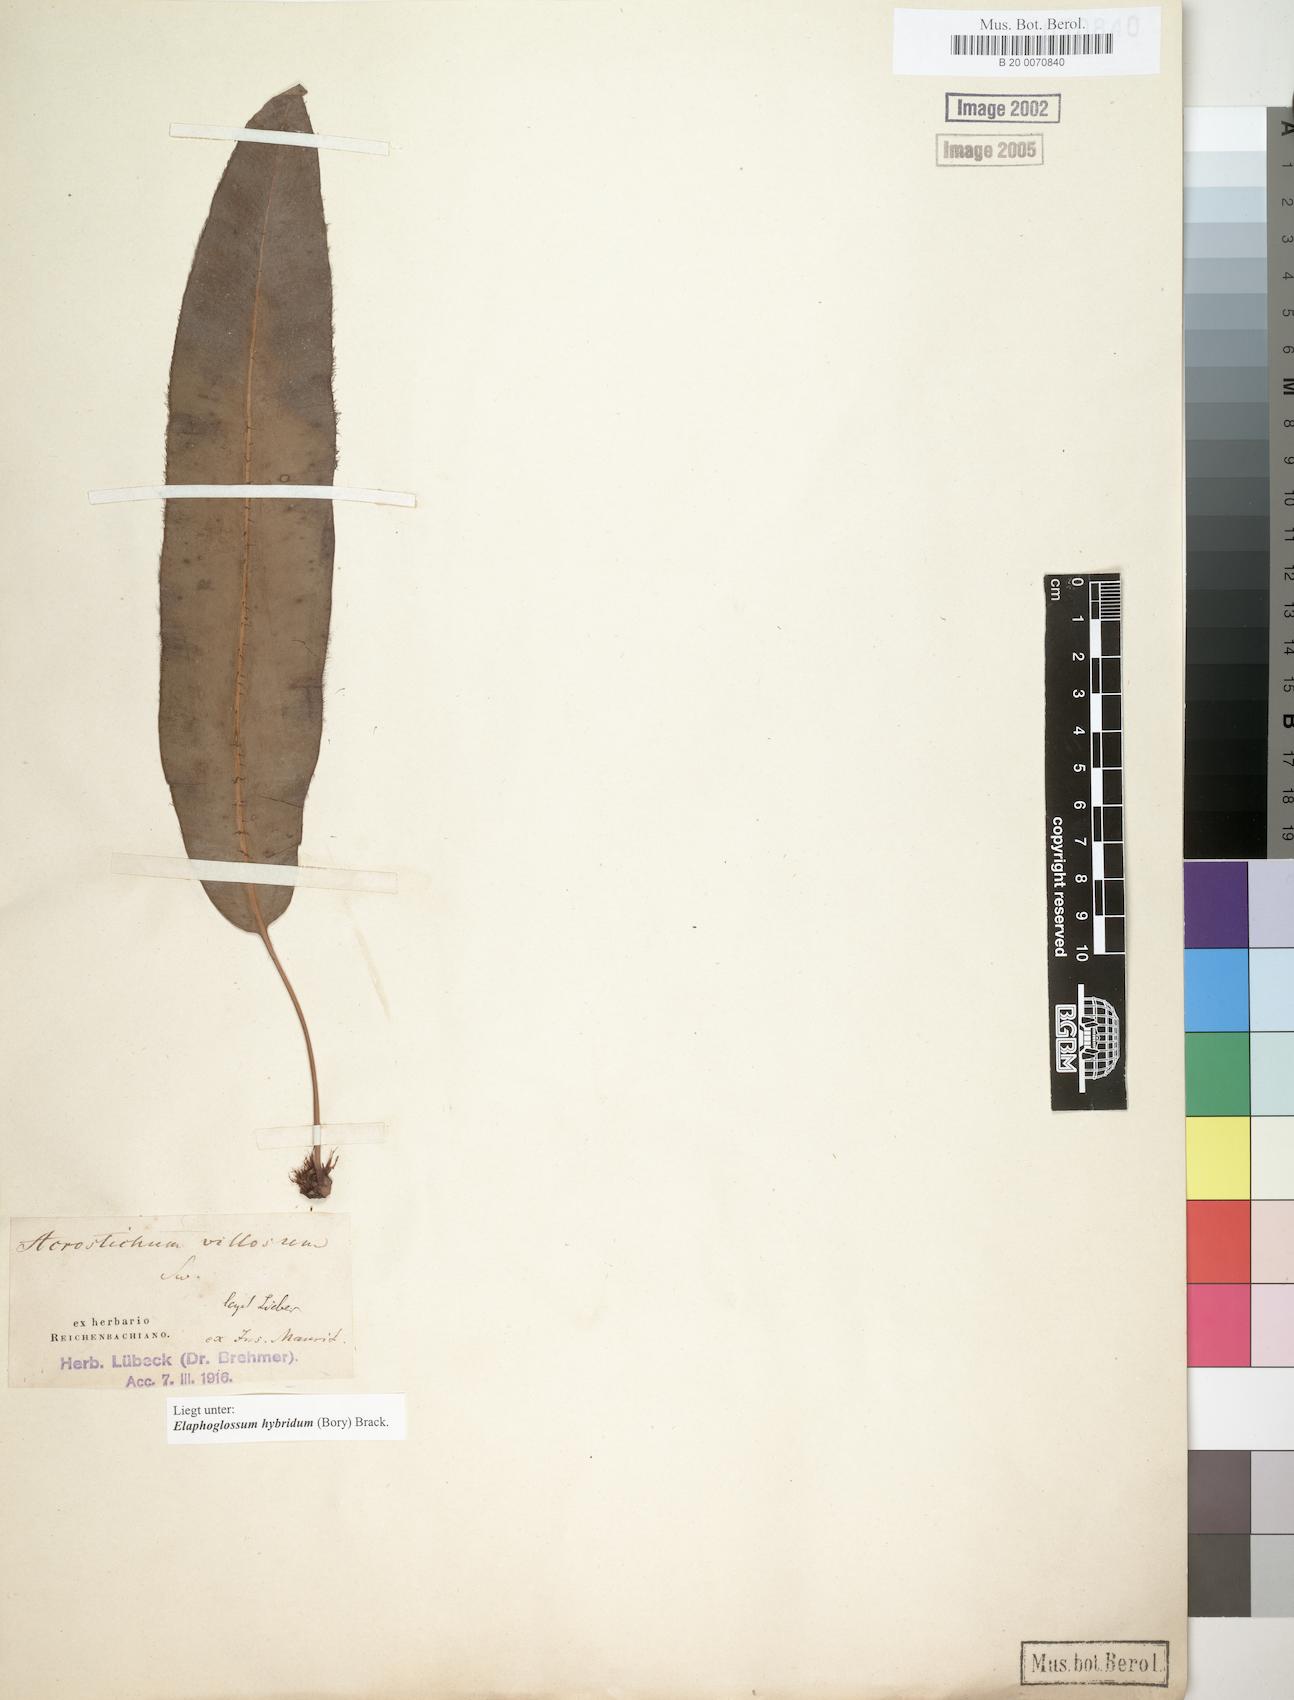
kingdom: Plantae
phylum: Tracheophyta
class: Polypodiopsida
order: Polypodiales
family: Dryopteridaceae
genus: Elaphoglossum
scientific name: Elaphoglossum hybridum
